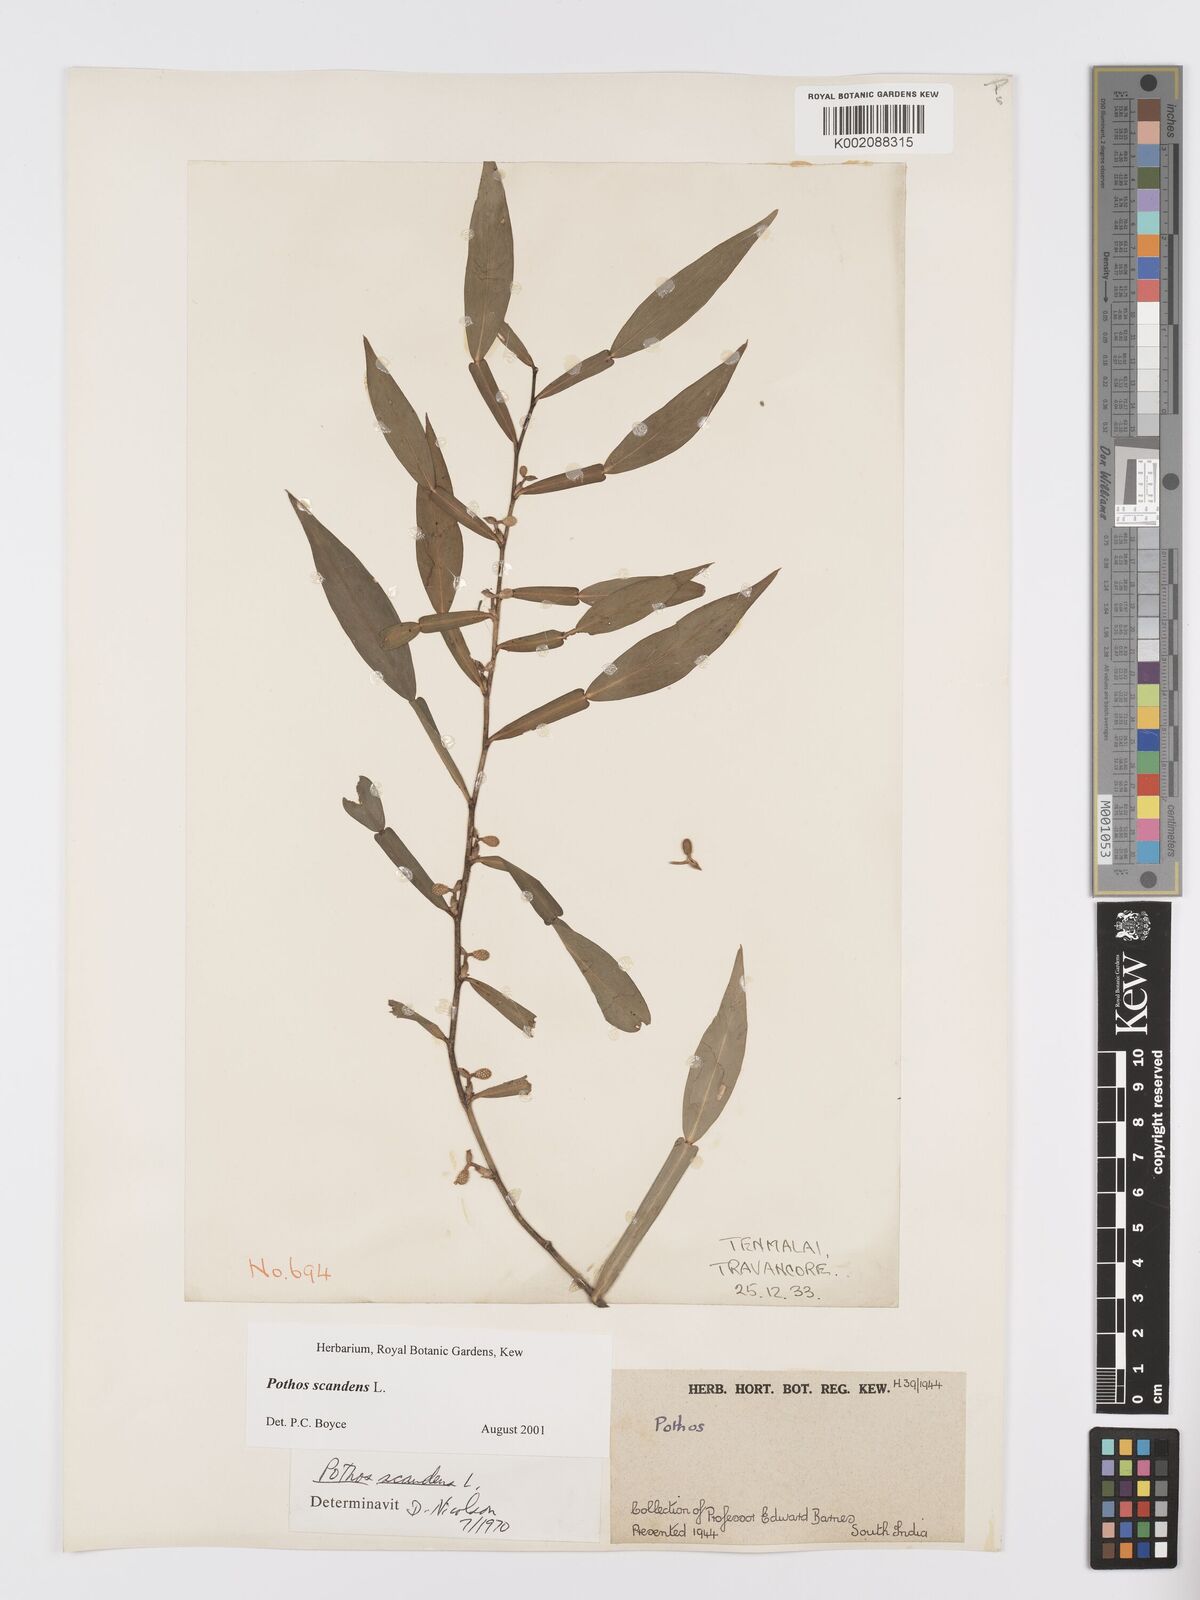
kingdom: Plantae
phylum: Tracheophyta
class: Liliopsida
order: Alismatales
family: Araceae
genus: Pothos
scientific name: Pothos scandens
